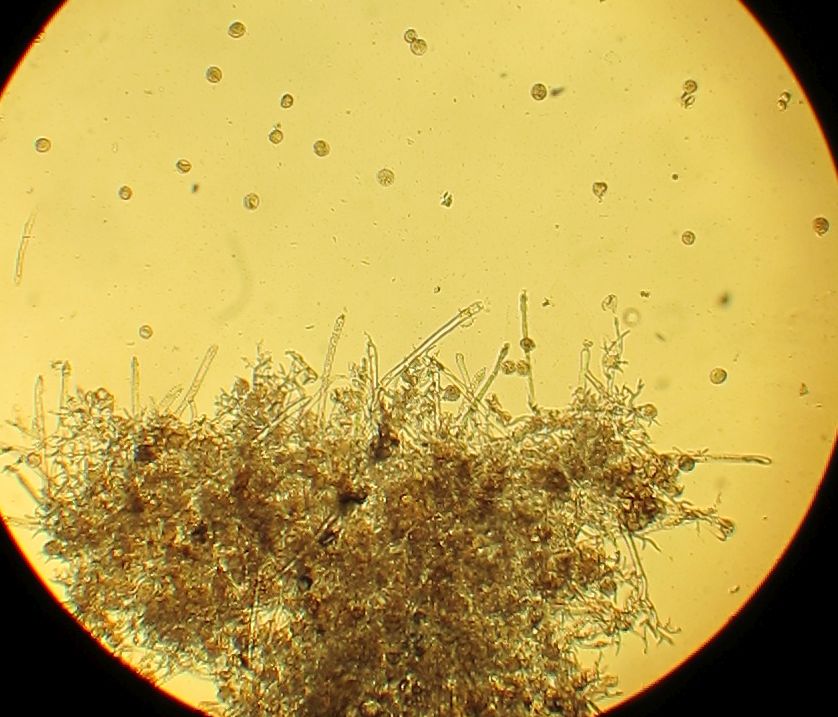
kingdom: Chromista
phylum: Oomycota
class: Peronosporea
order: Peronosporales
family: Peronosporaceae
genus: Peronospora
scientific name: Peronospora conglomerata
